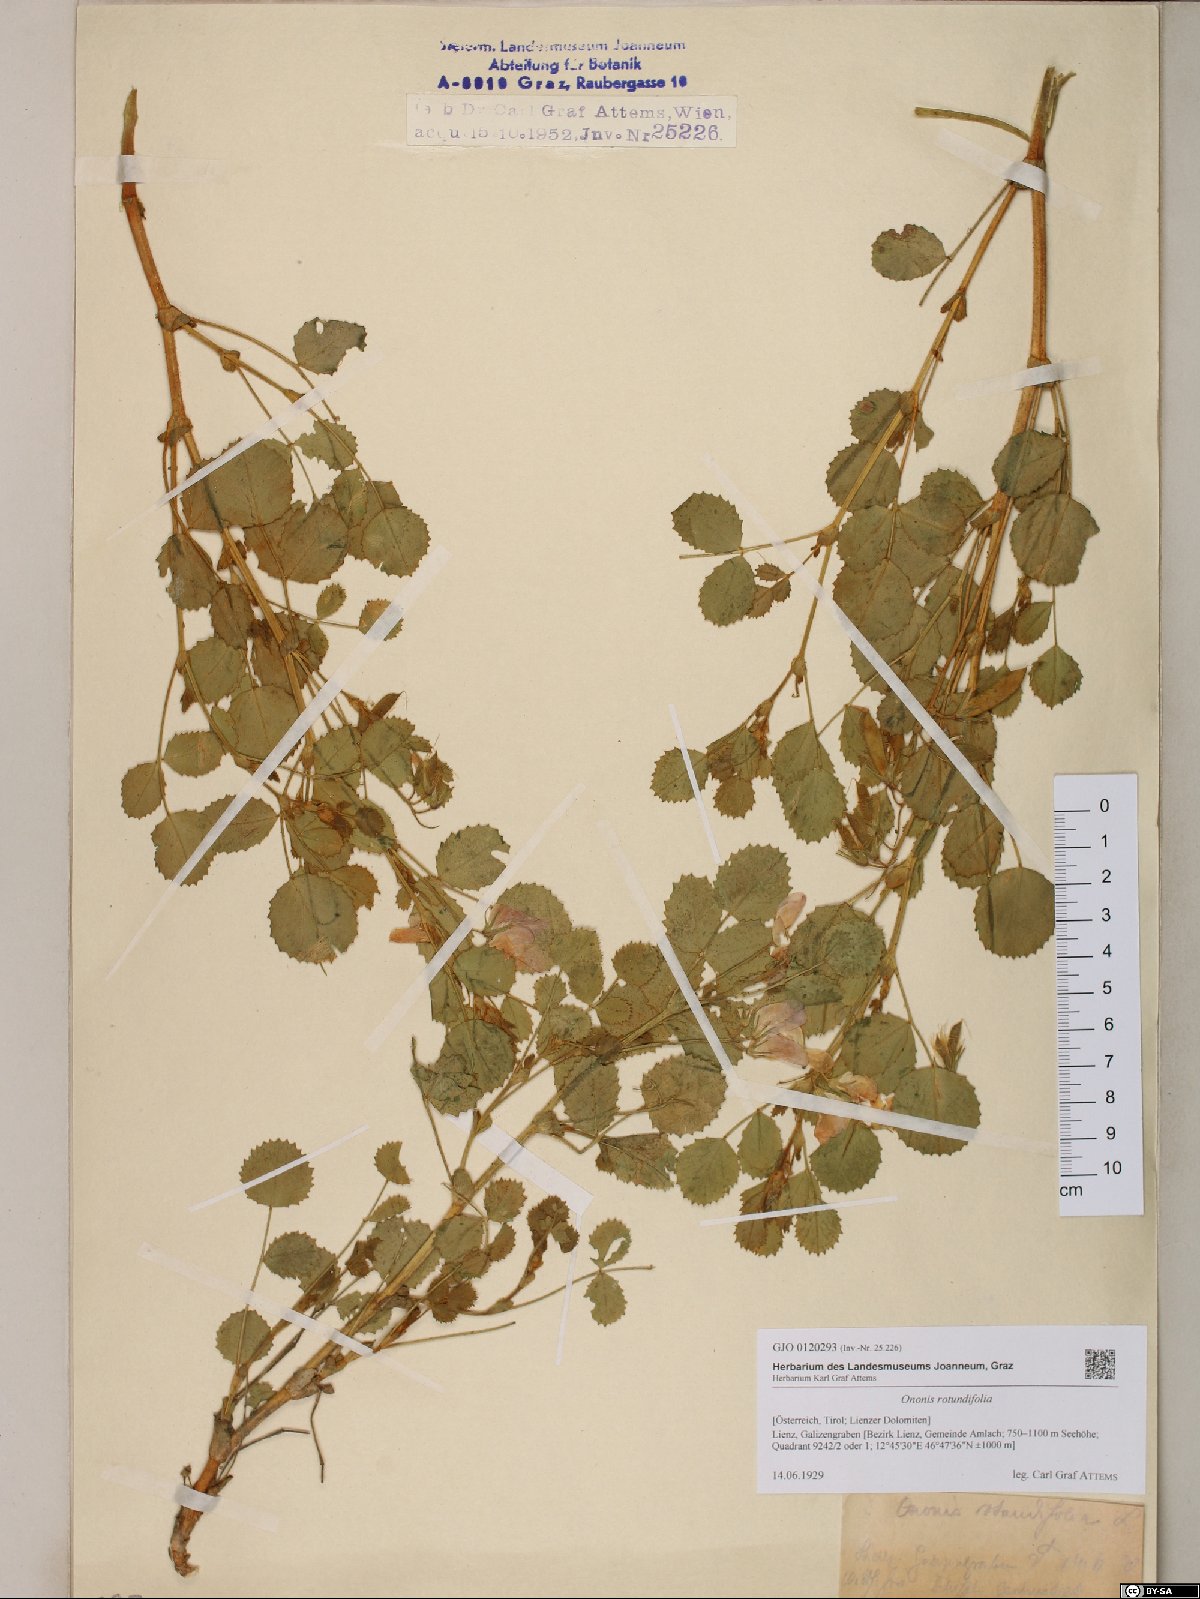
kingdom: Plantae
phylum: Tracheophyta
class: Magnoliopsida
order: Fabales
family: Fabaceae
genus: Ononis
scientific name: Ononis rotundifolia
